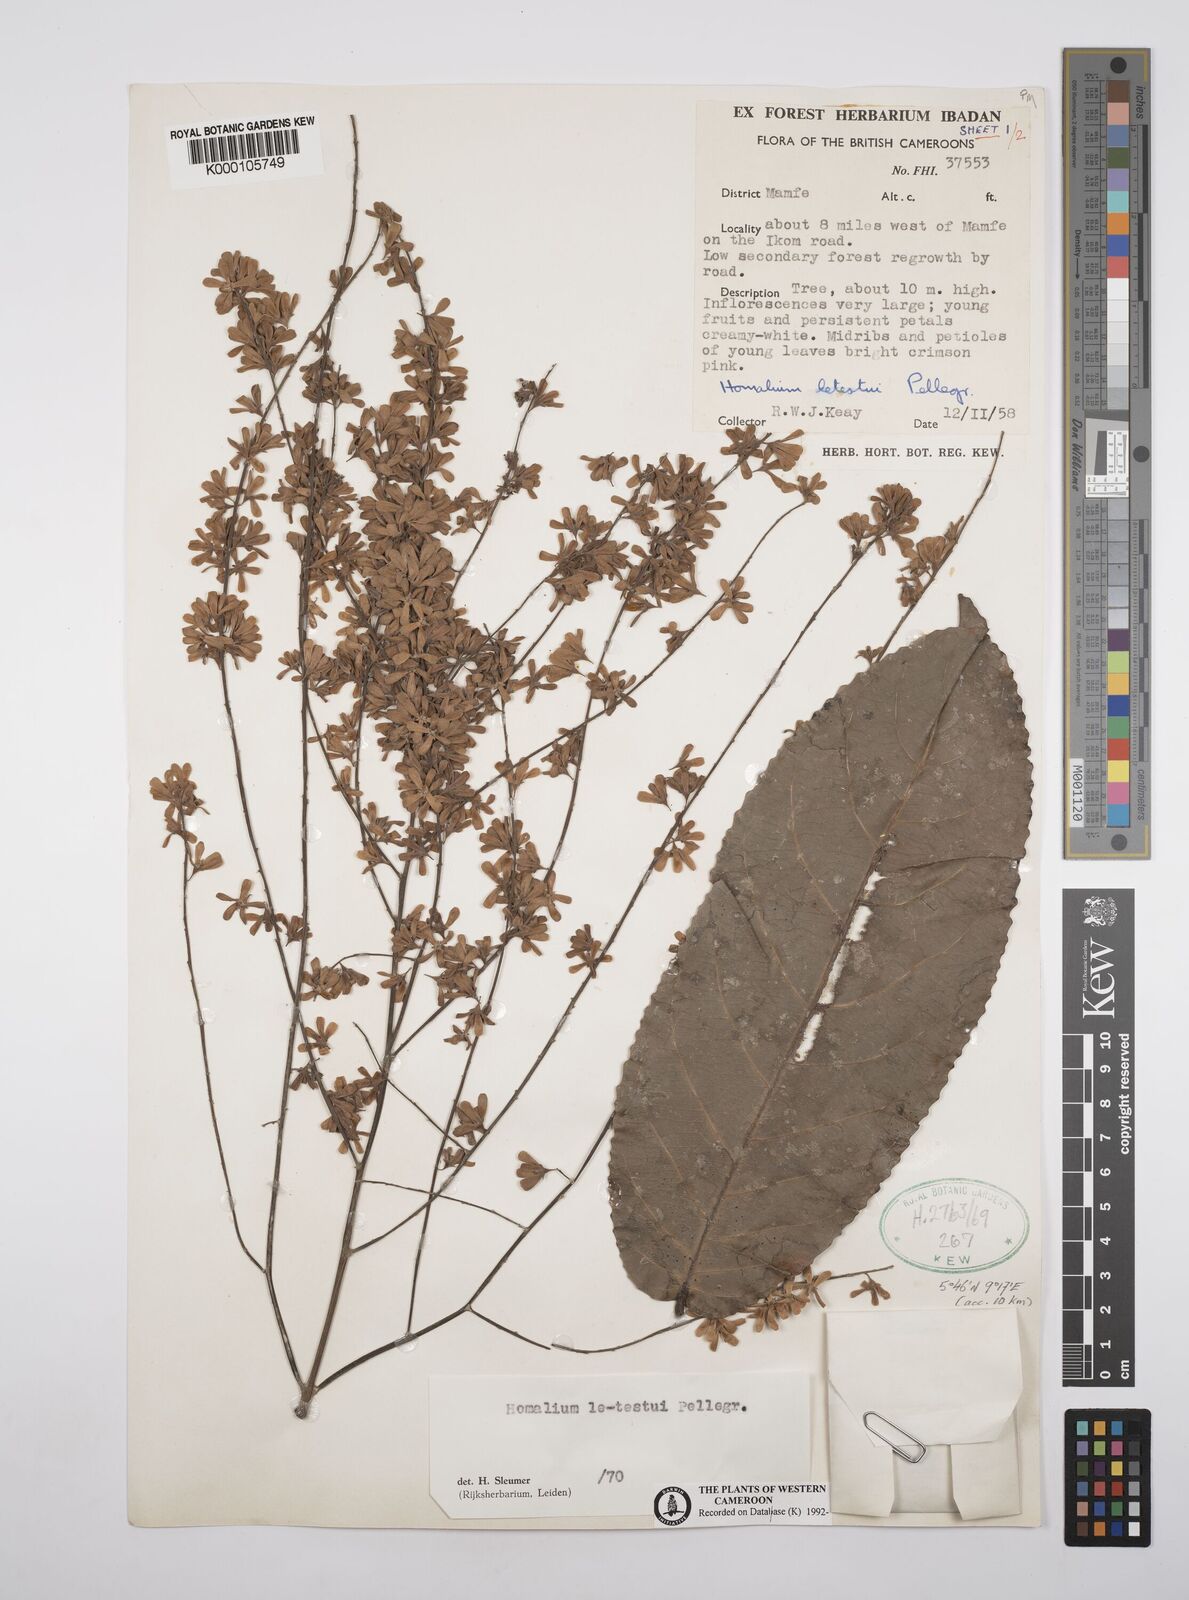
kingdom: Plantae
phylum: Tracheophyta
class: Magnoliopsida
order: Malpighiales
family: Salicaceae
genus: Homalium
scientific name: Homalium letestui
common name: African homalium
